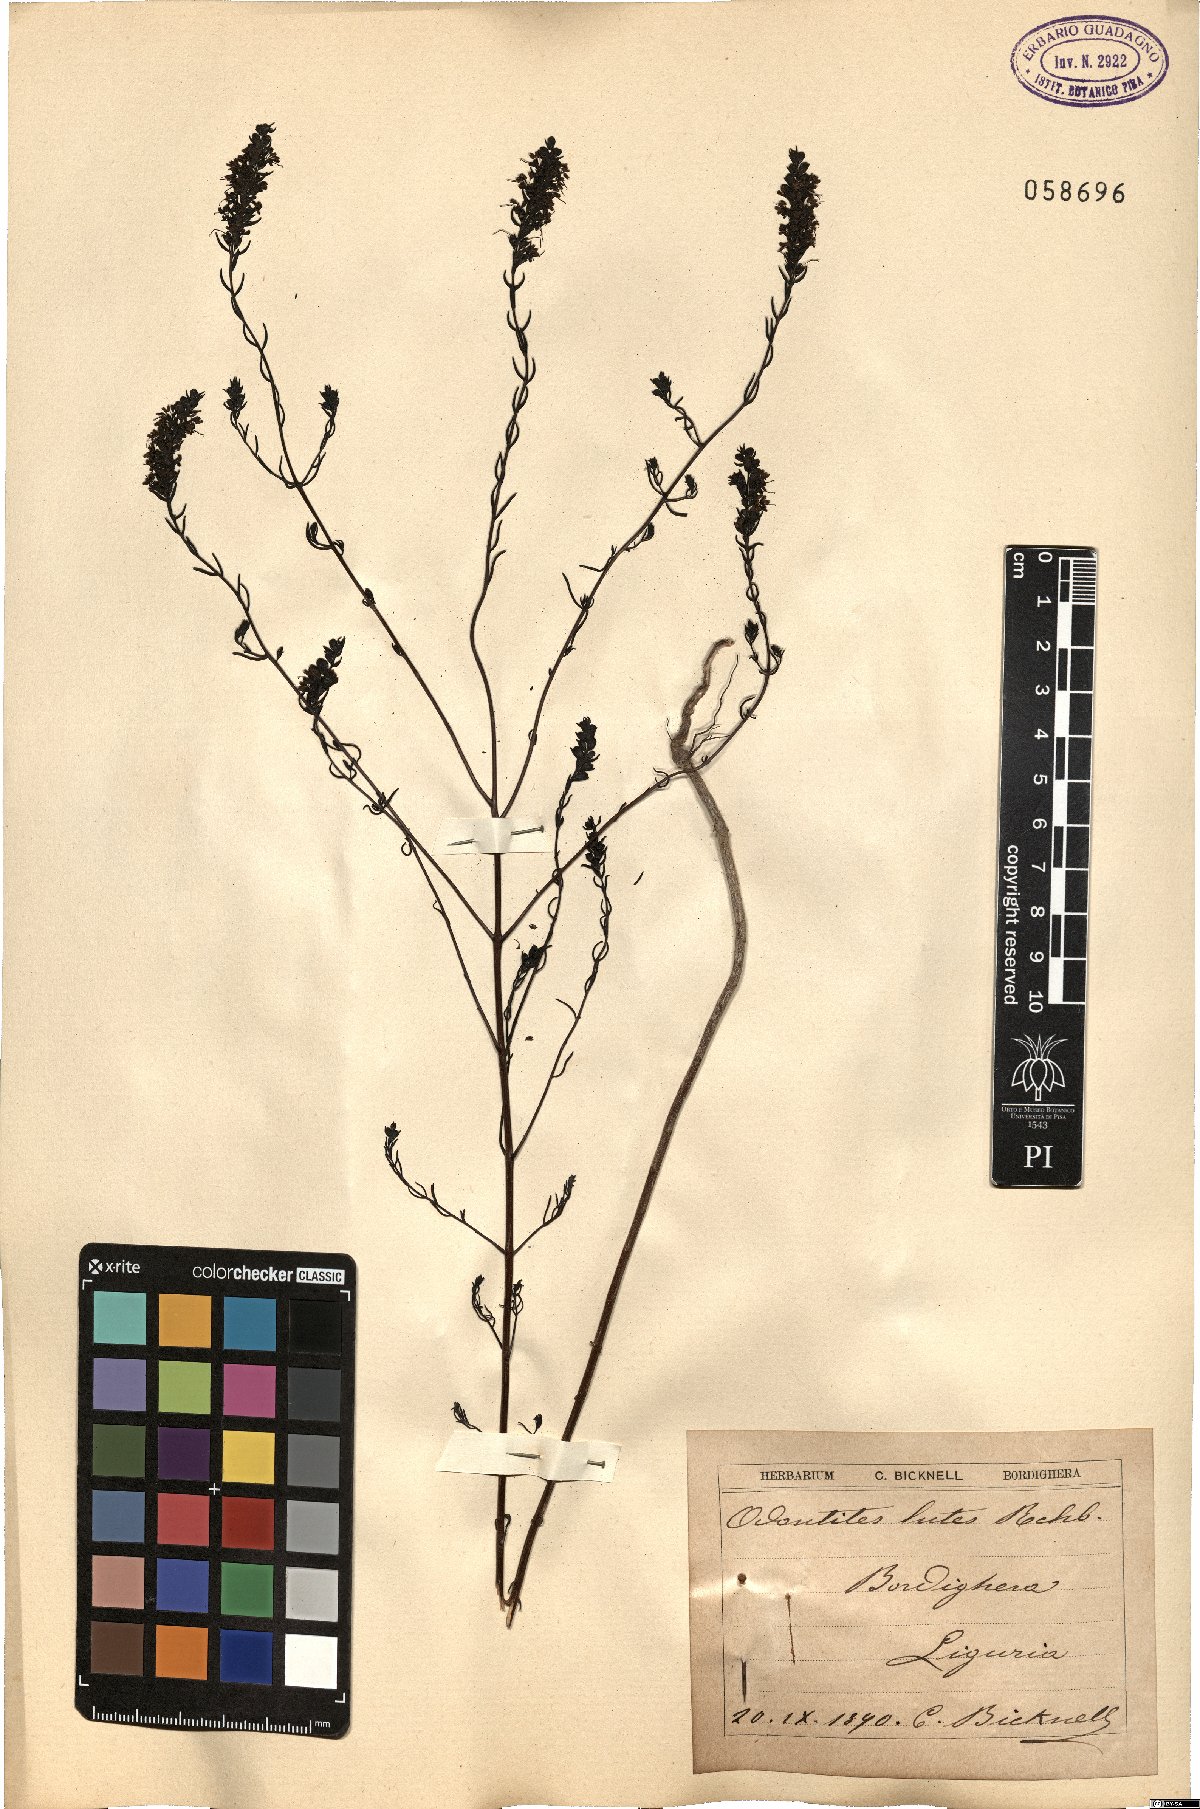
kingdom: Plantae
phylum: Tracheophyta
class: Magnoliopsida
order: Lamiales
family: Orobanchaceae
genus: Odontites
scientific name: Odontites luteus
